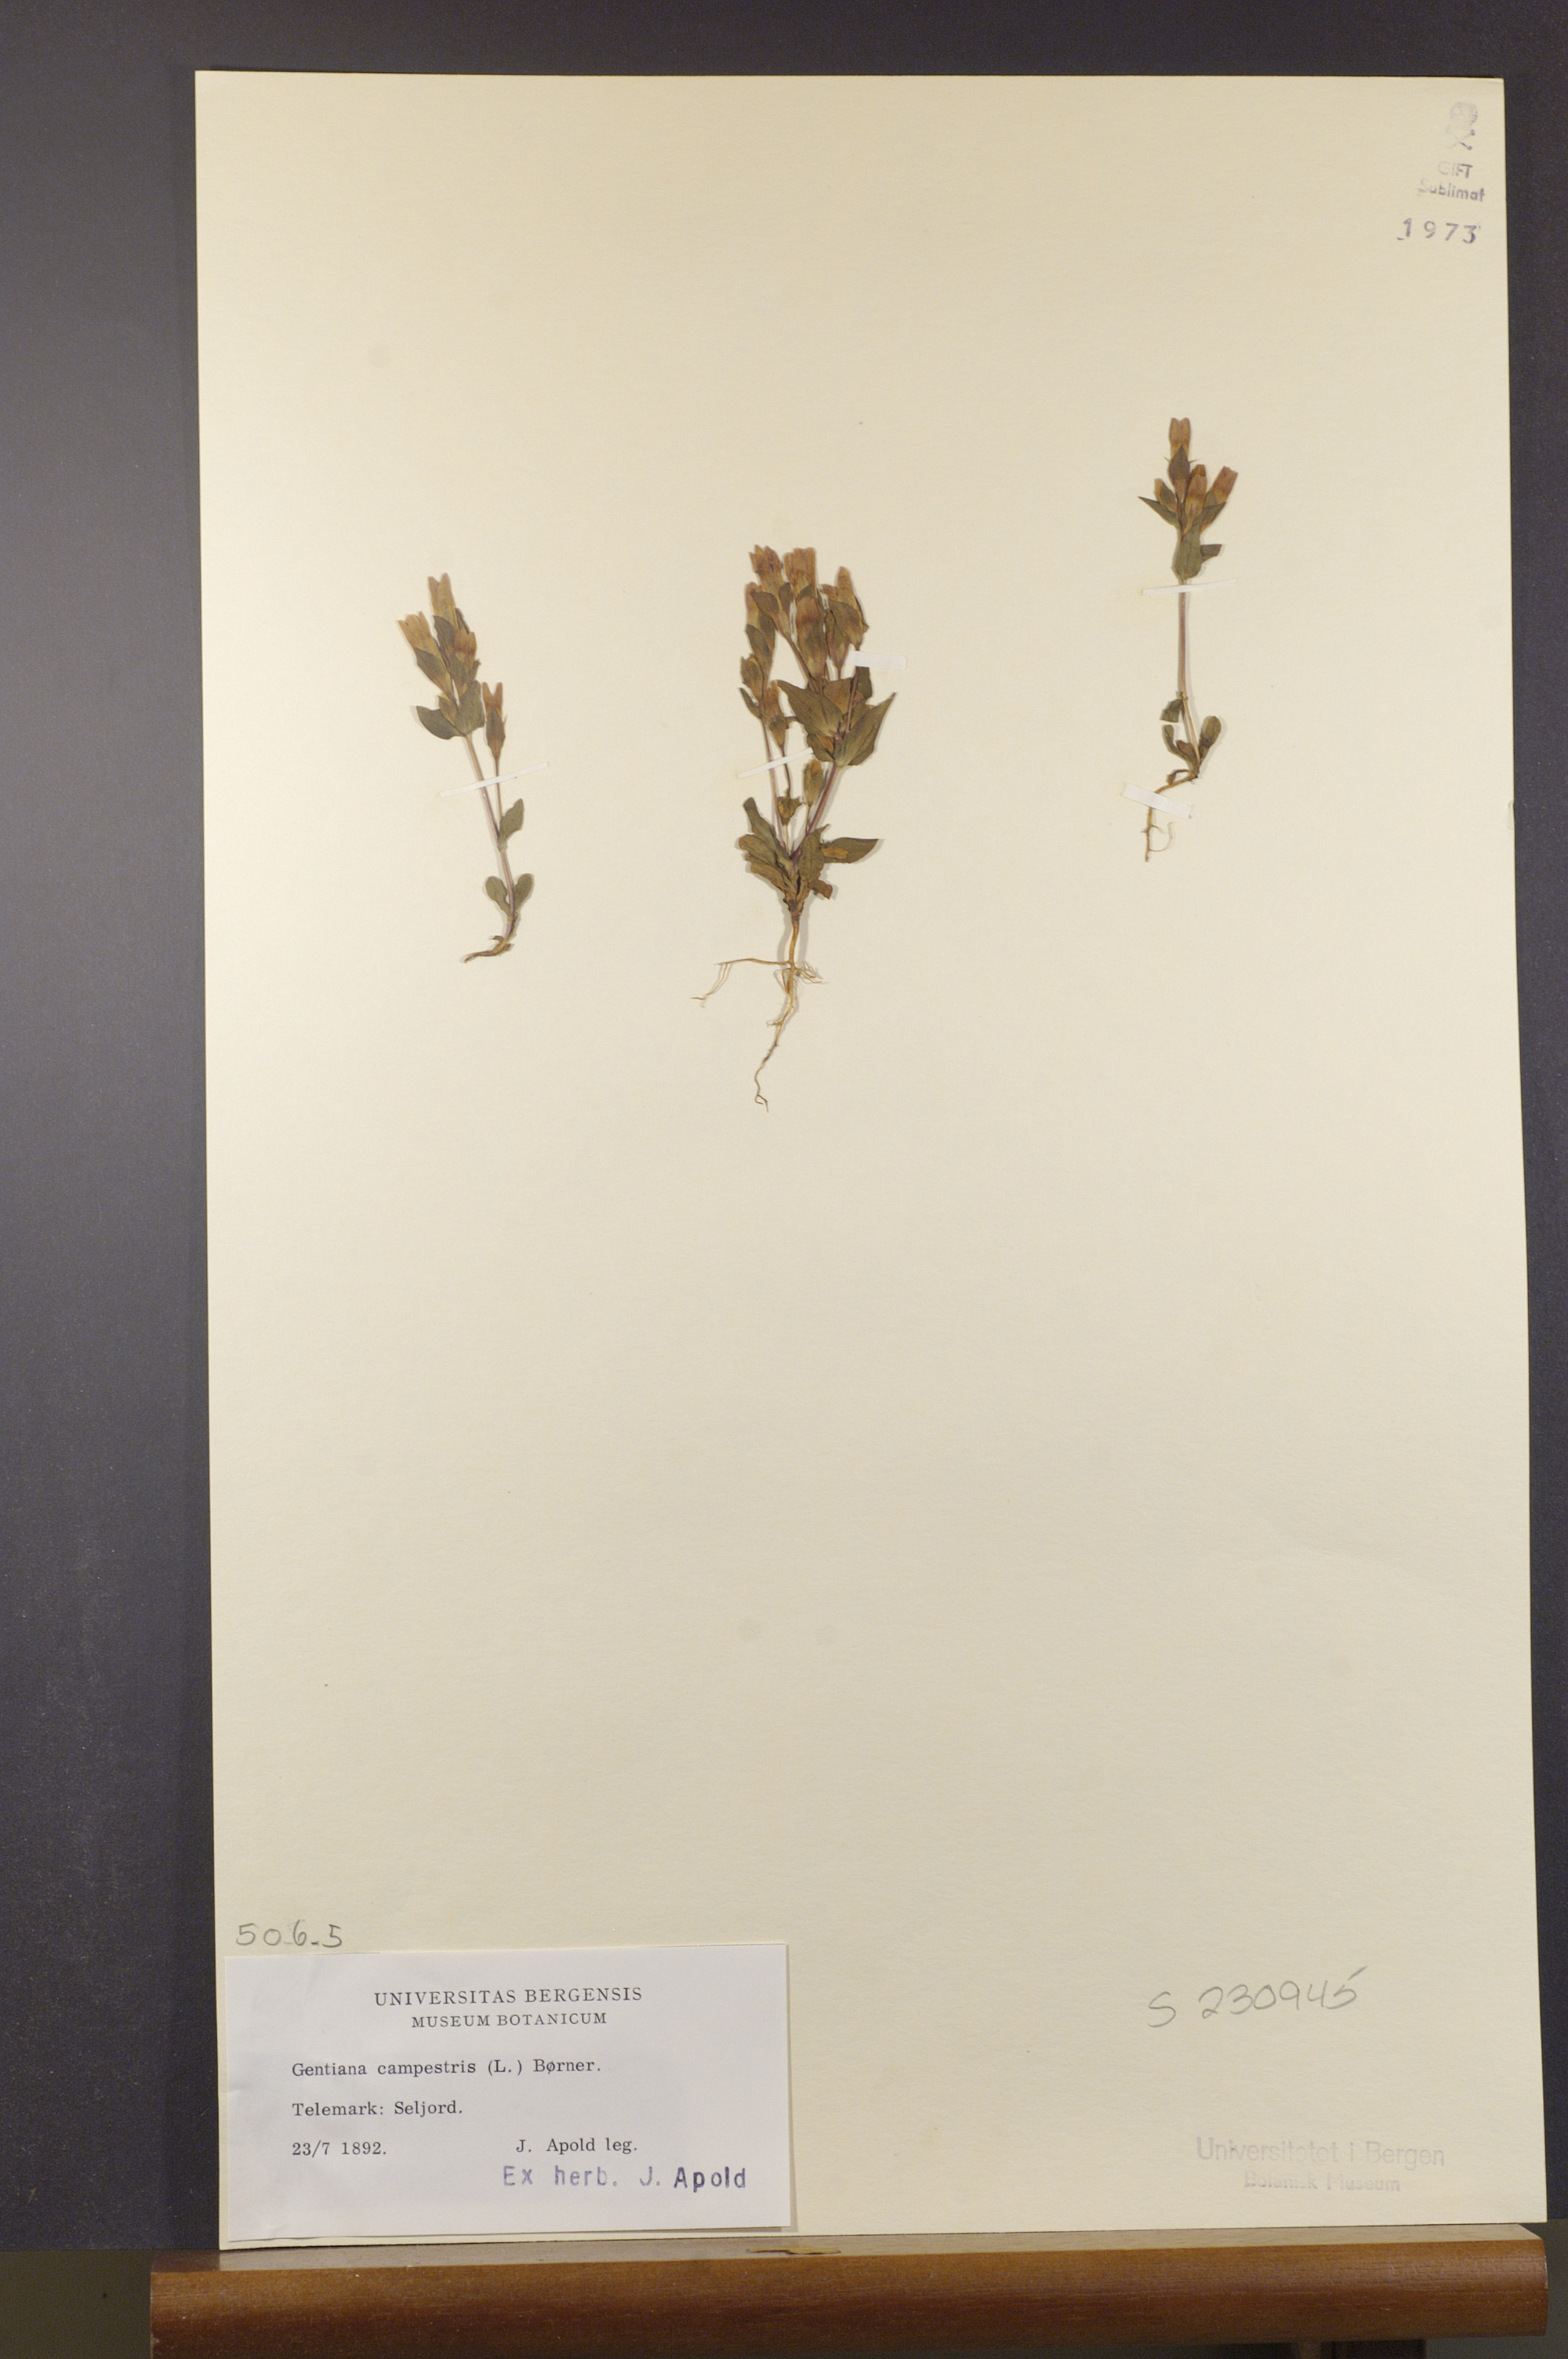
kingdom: Plantae
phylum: Tracheophyta
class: Magnoliopsida
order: Gentianales
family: Gentianaceae
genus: Gentianella
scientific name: Gentianella campestris
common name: Field gentian
